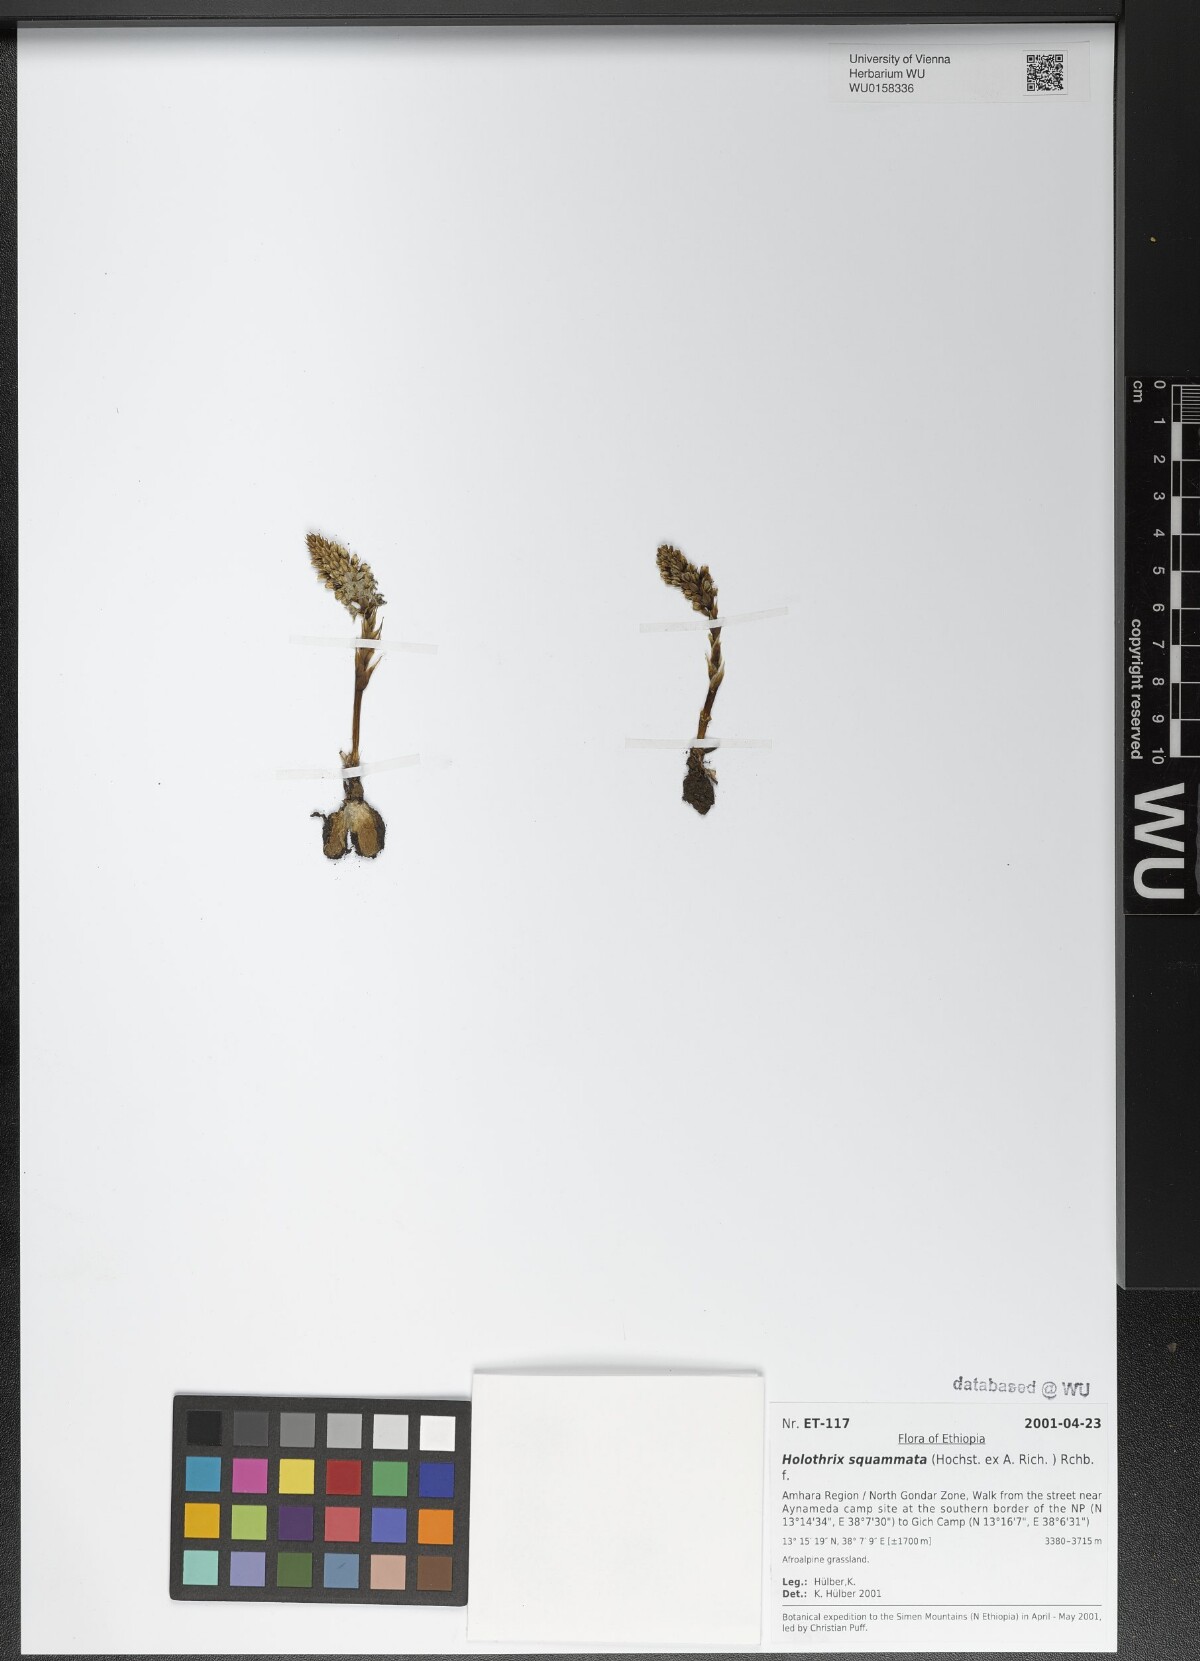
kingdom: Plantae
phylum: Tracheophyta
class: Liliopsida
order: Asparagales
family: Orchidaceae
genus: Holothrix
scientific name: Holothrix squammata
